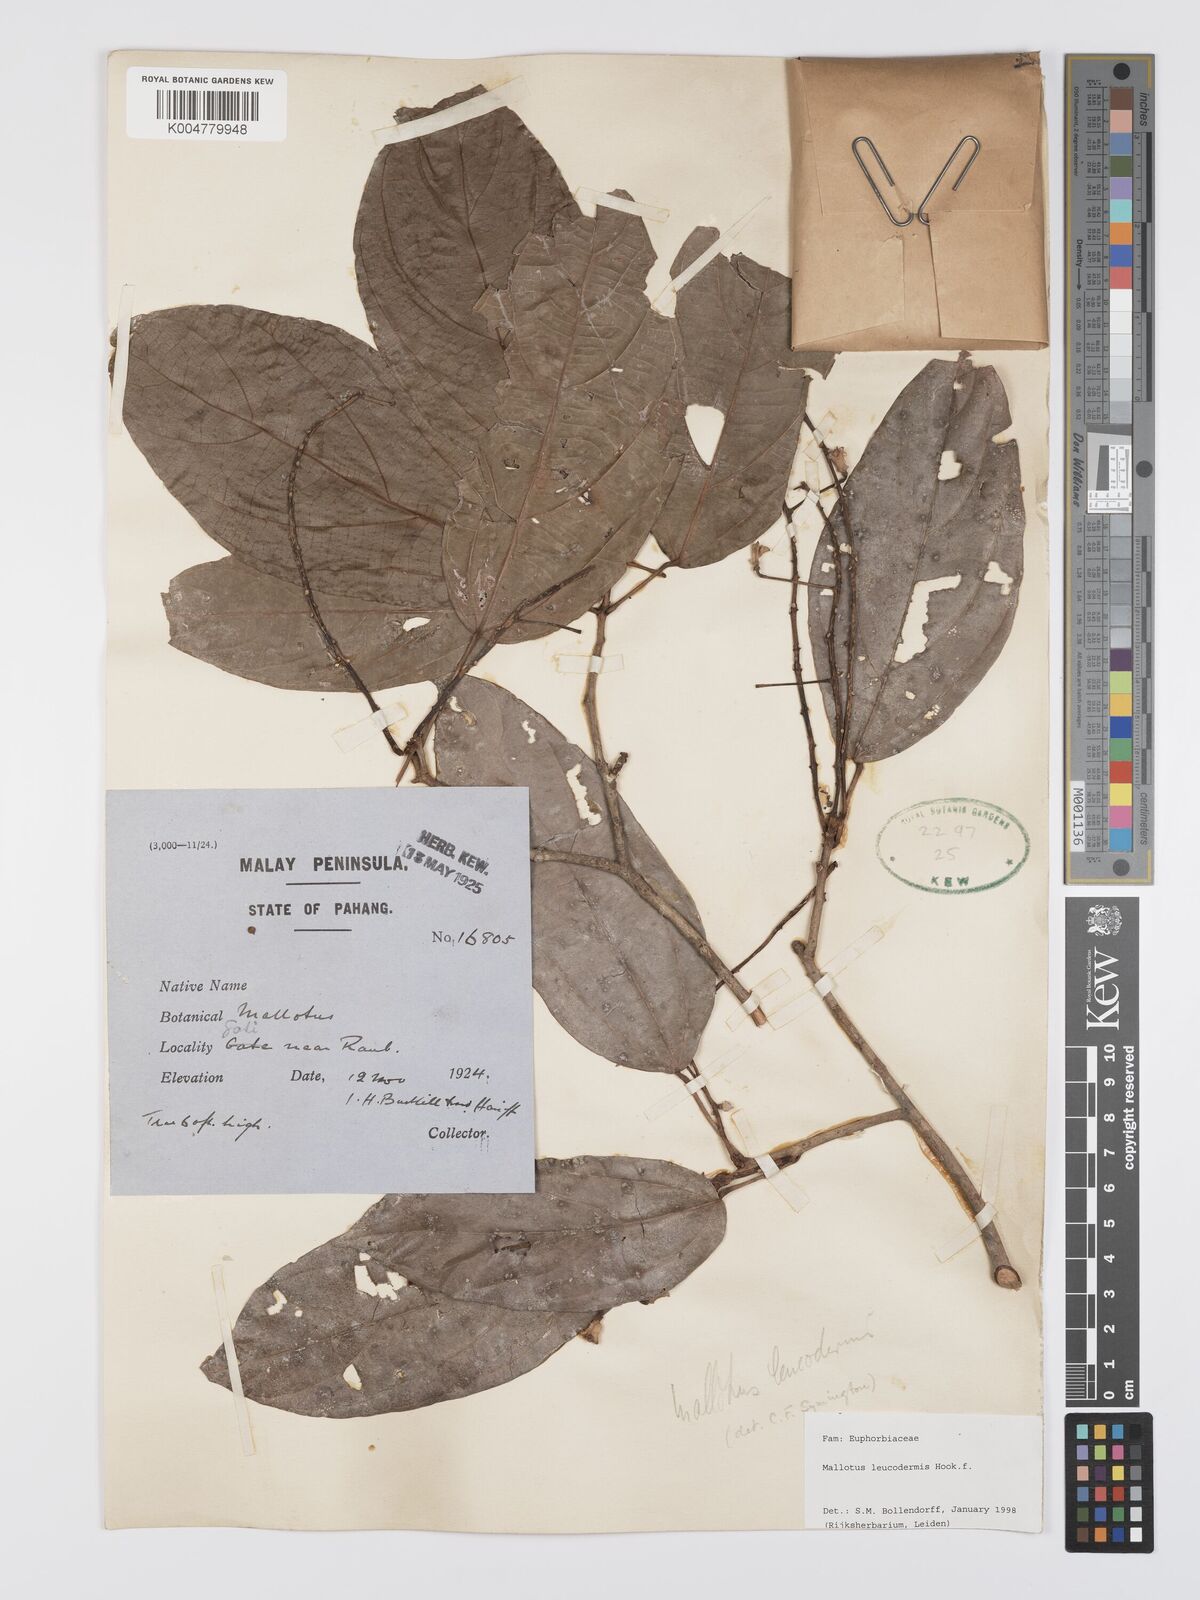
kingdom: Plantae
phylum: Tracheophyta
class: Magnoliopsida
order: Malpighiales
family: Euphorbiaceae
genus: Mallotus
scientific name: Mallotus leucodermis
